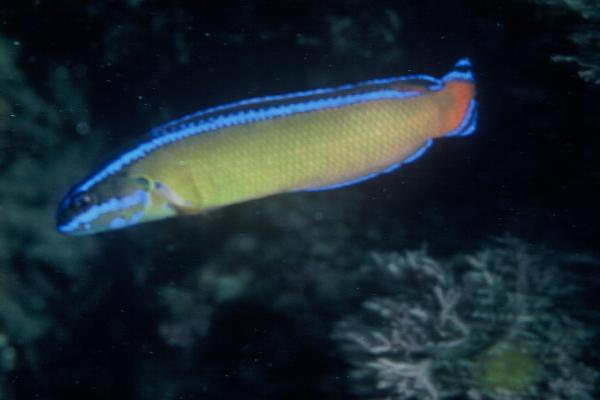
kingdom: Animalia
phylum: Chordata
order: Perciformes
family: Pseudochromidae
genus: Pseudochromis
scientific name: Pseudochromis dutoiti
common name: Dutoiti
